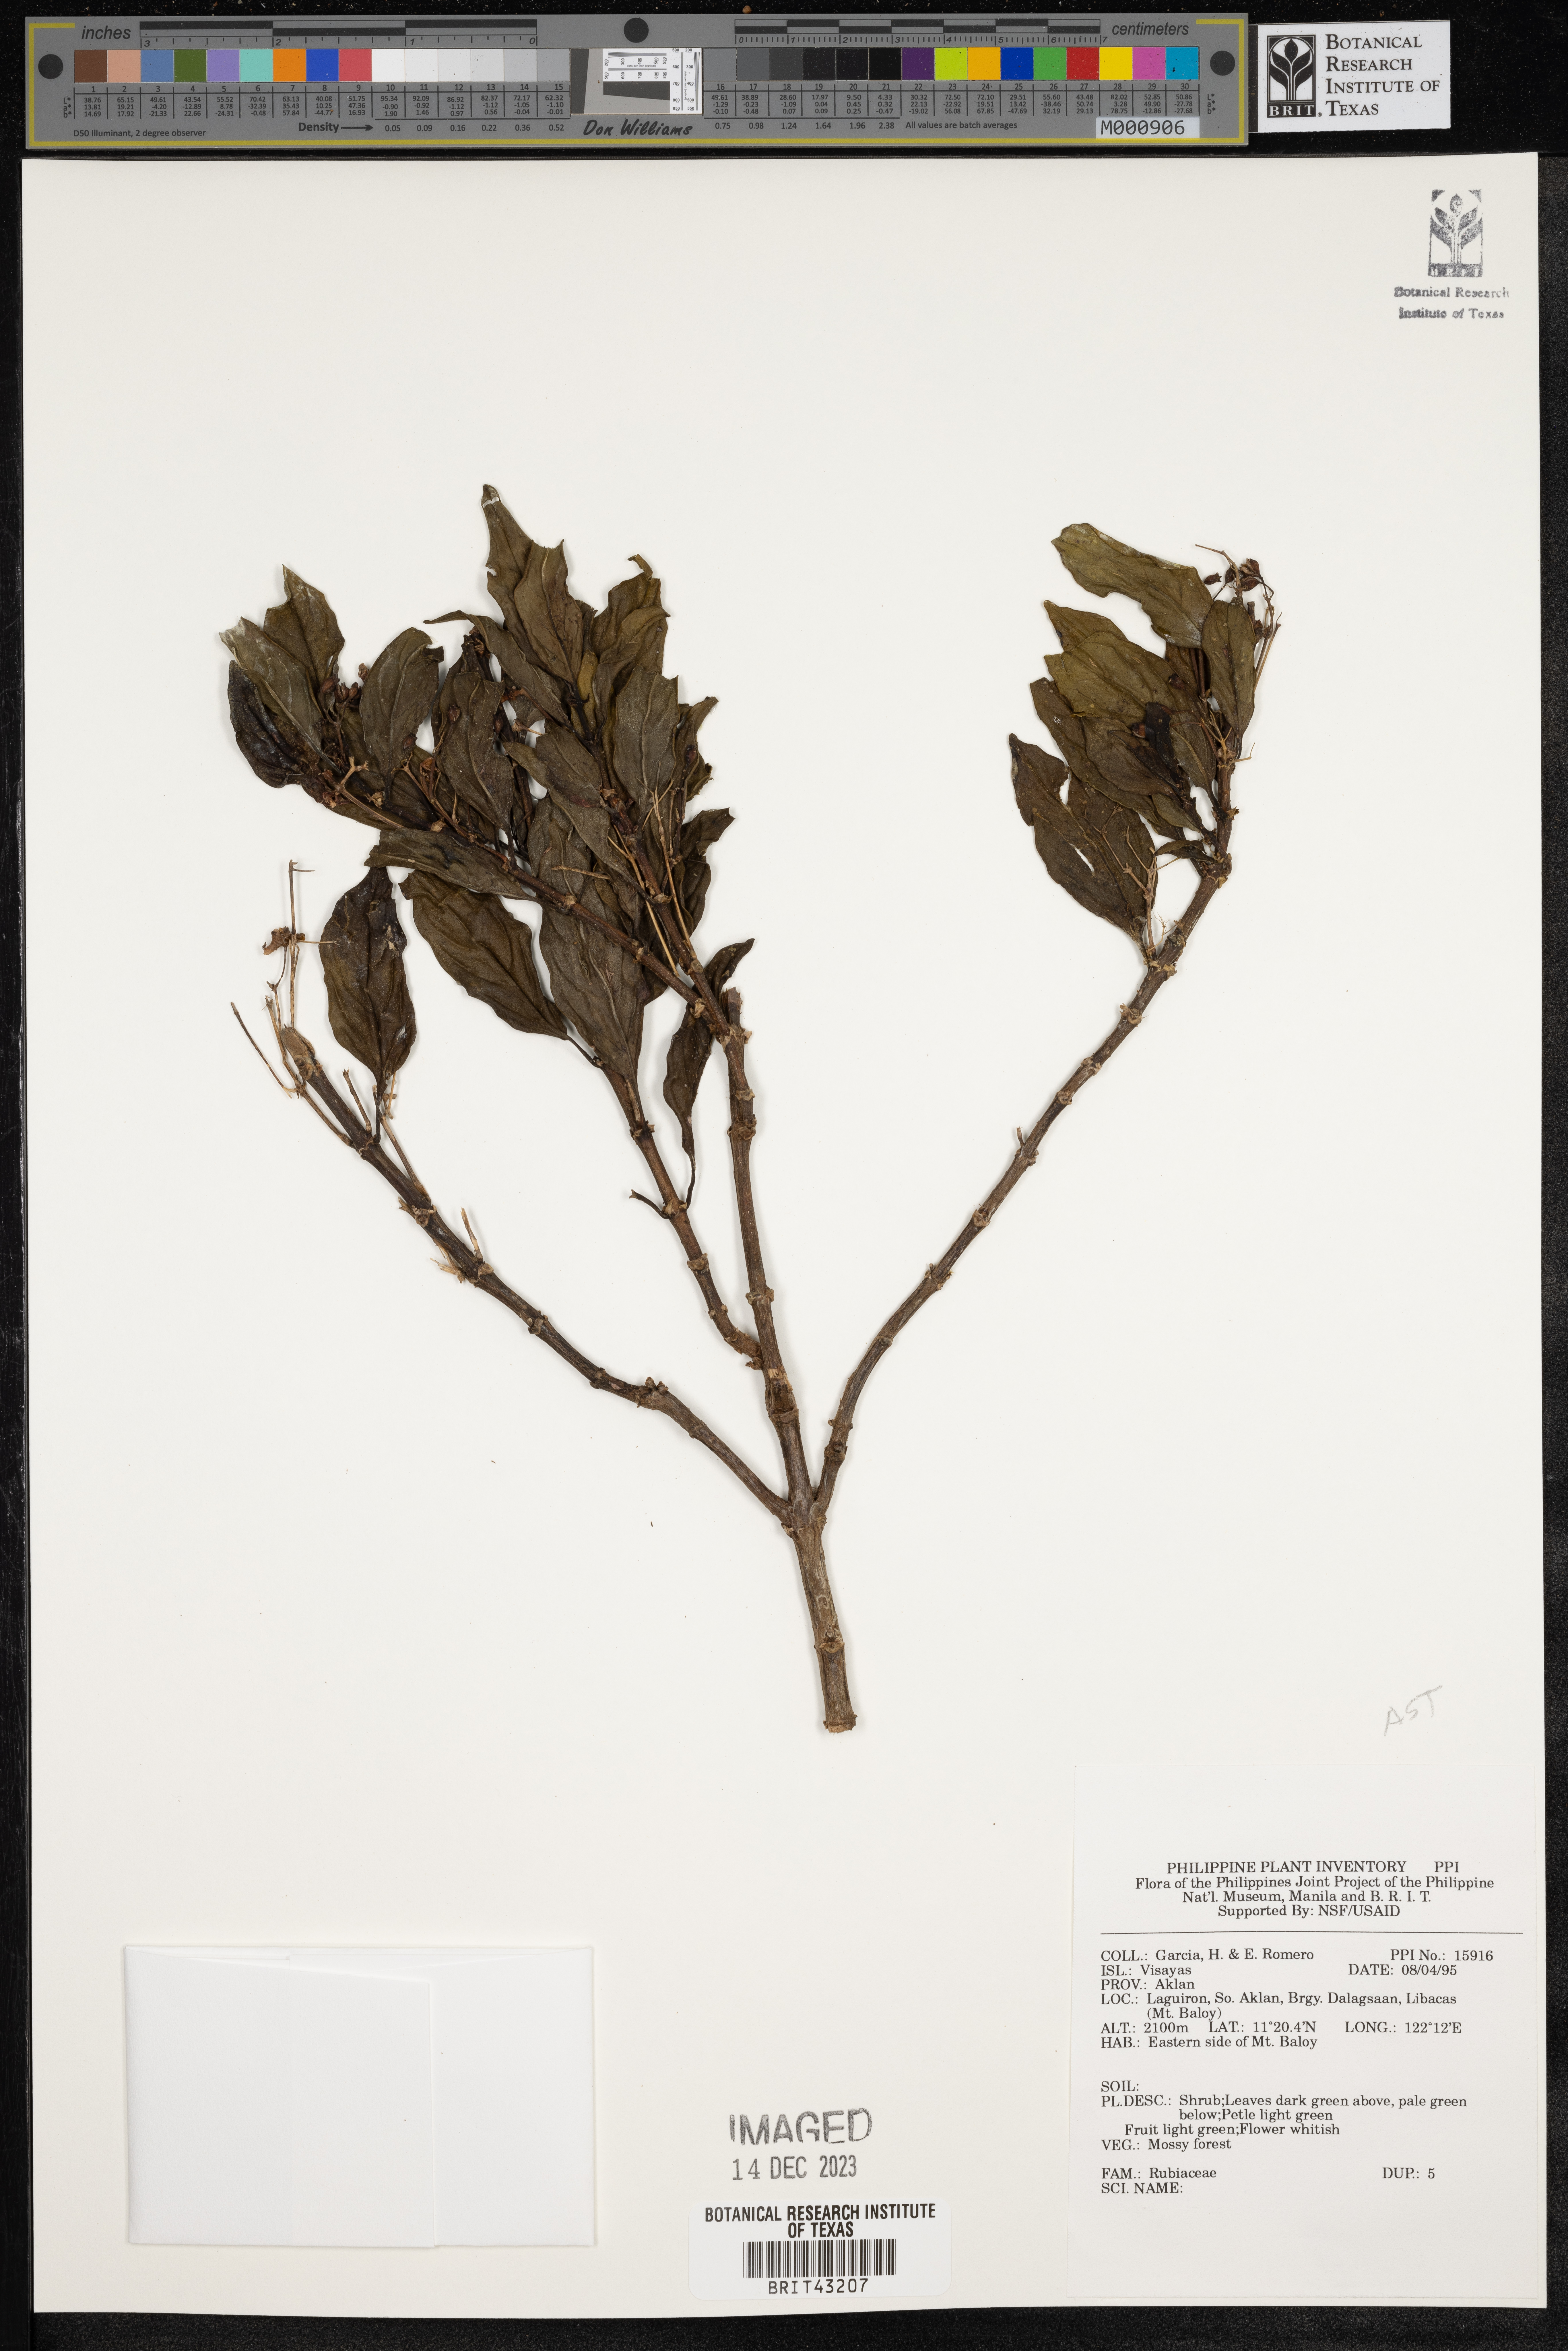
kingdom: Plantae
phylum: Tracheophyta
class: Magnoliopsida
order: Gentianales
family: Rubiaceae
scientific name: Rubiaceae
